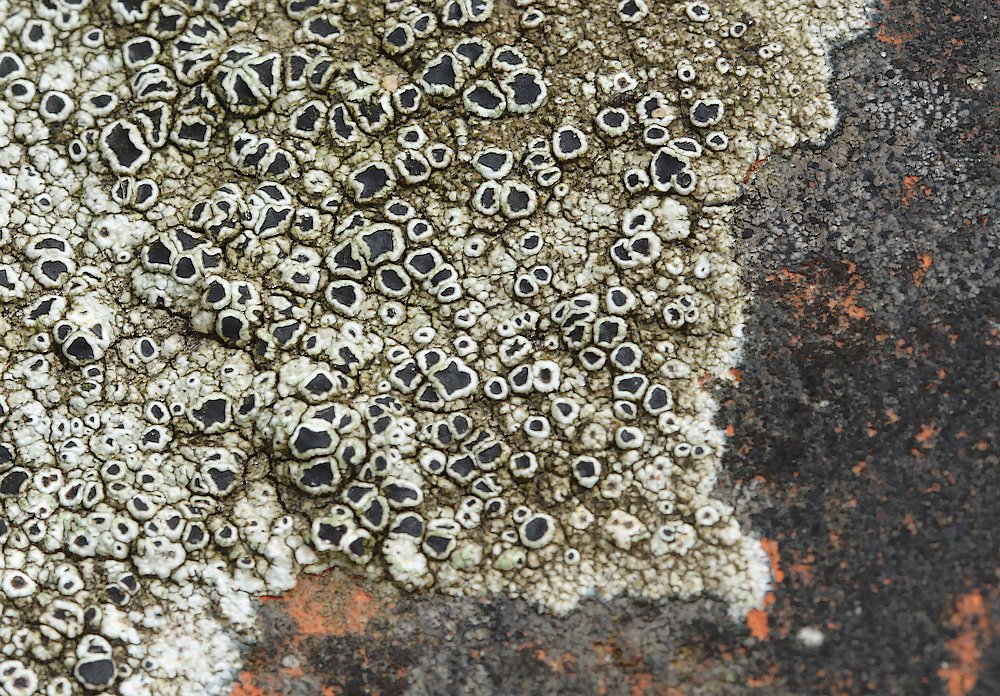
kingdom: Fungi
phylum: Ascomycota
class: Lecanoromycetes
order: Lecanorales
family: Tephromelataceae
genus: Tephromela
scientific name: Tephromela atra
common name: sortfrugtet kantskivelav
